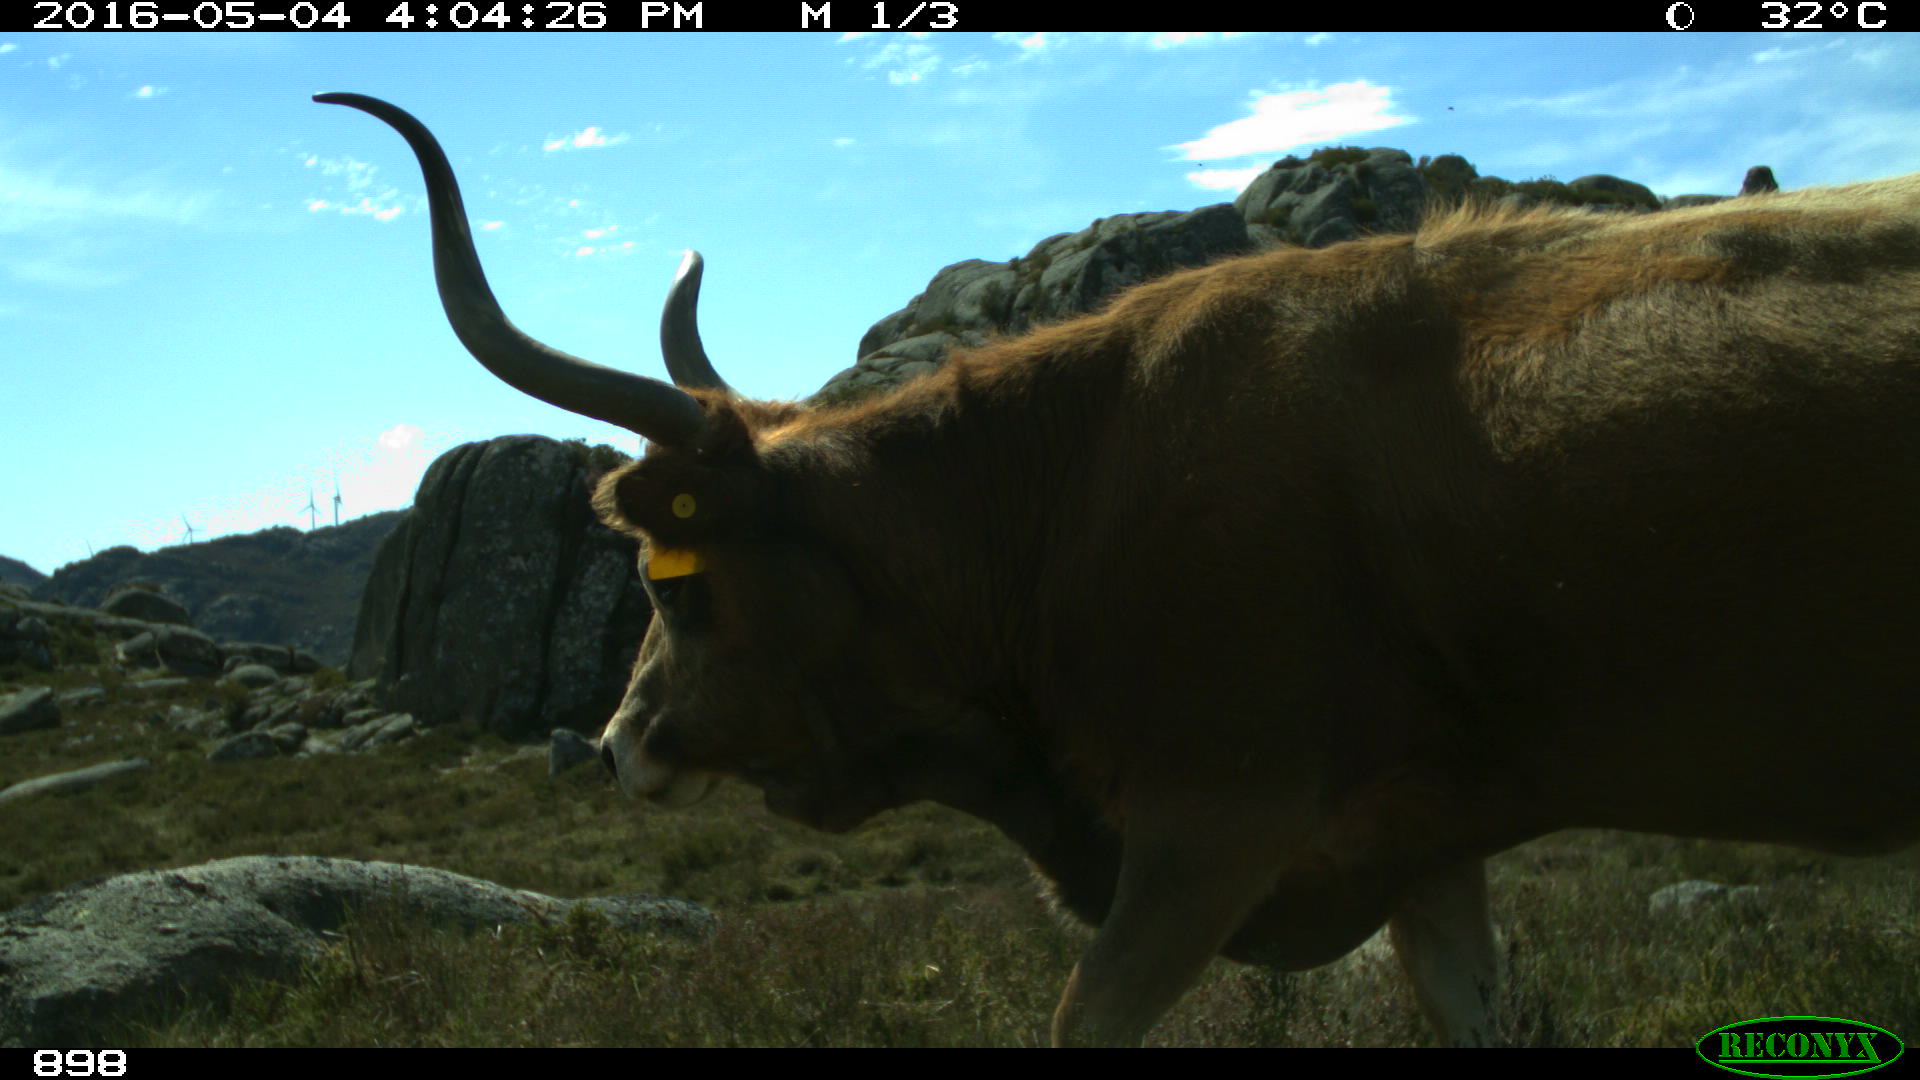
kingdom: Animalia
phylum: Chordata
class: Mammalia
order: Artiodactyla
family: Bovidae
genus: Bos
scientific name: Bos taurus
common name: Domesticated cattle
